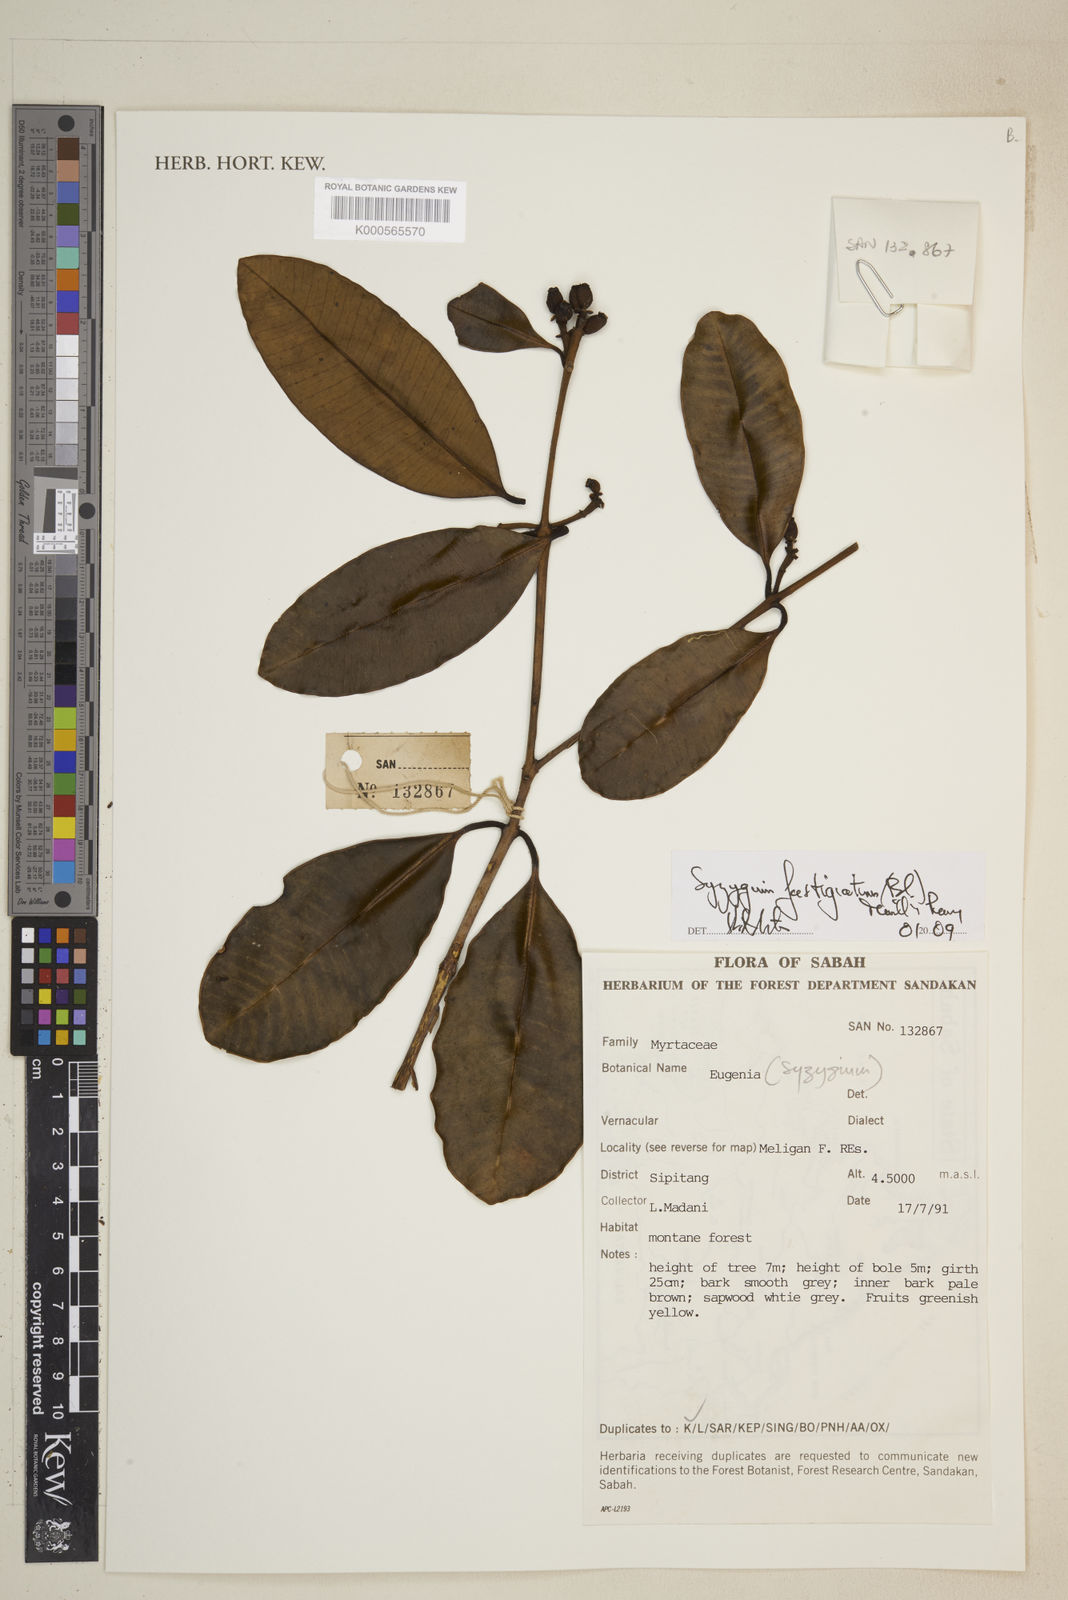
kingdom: Plantae
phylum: Tracheophyta
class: Magnoliopsida
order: Myrtales
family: Myrtaceae
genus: Syzygium
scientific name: Syzygium fastigiatum
